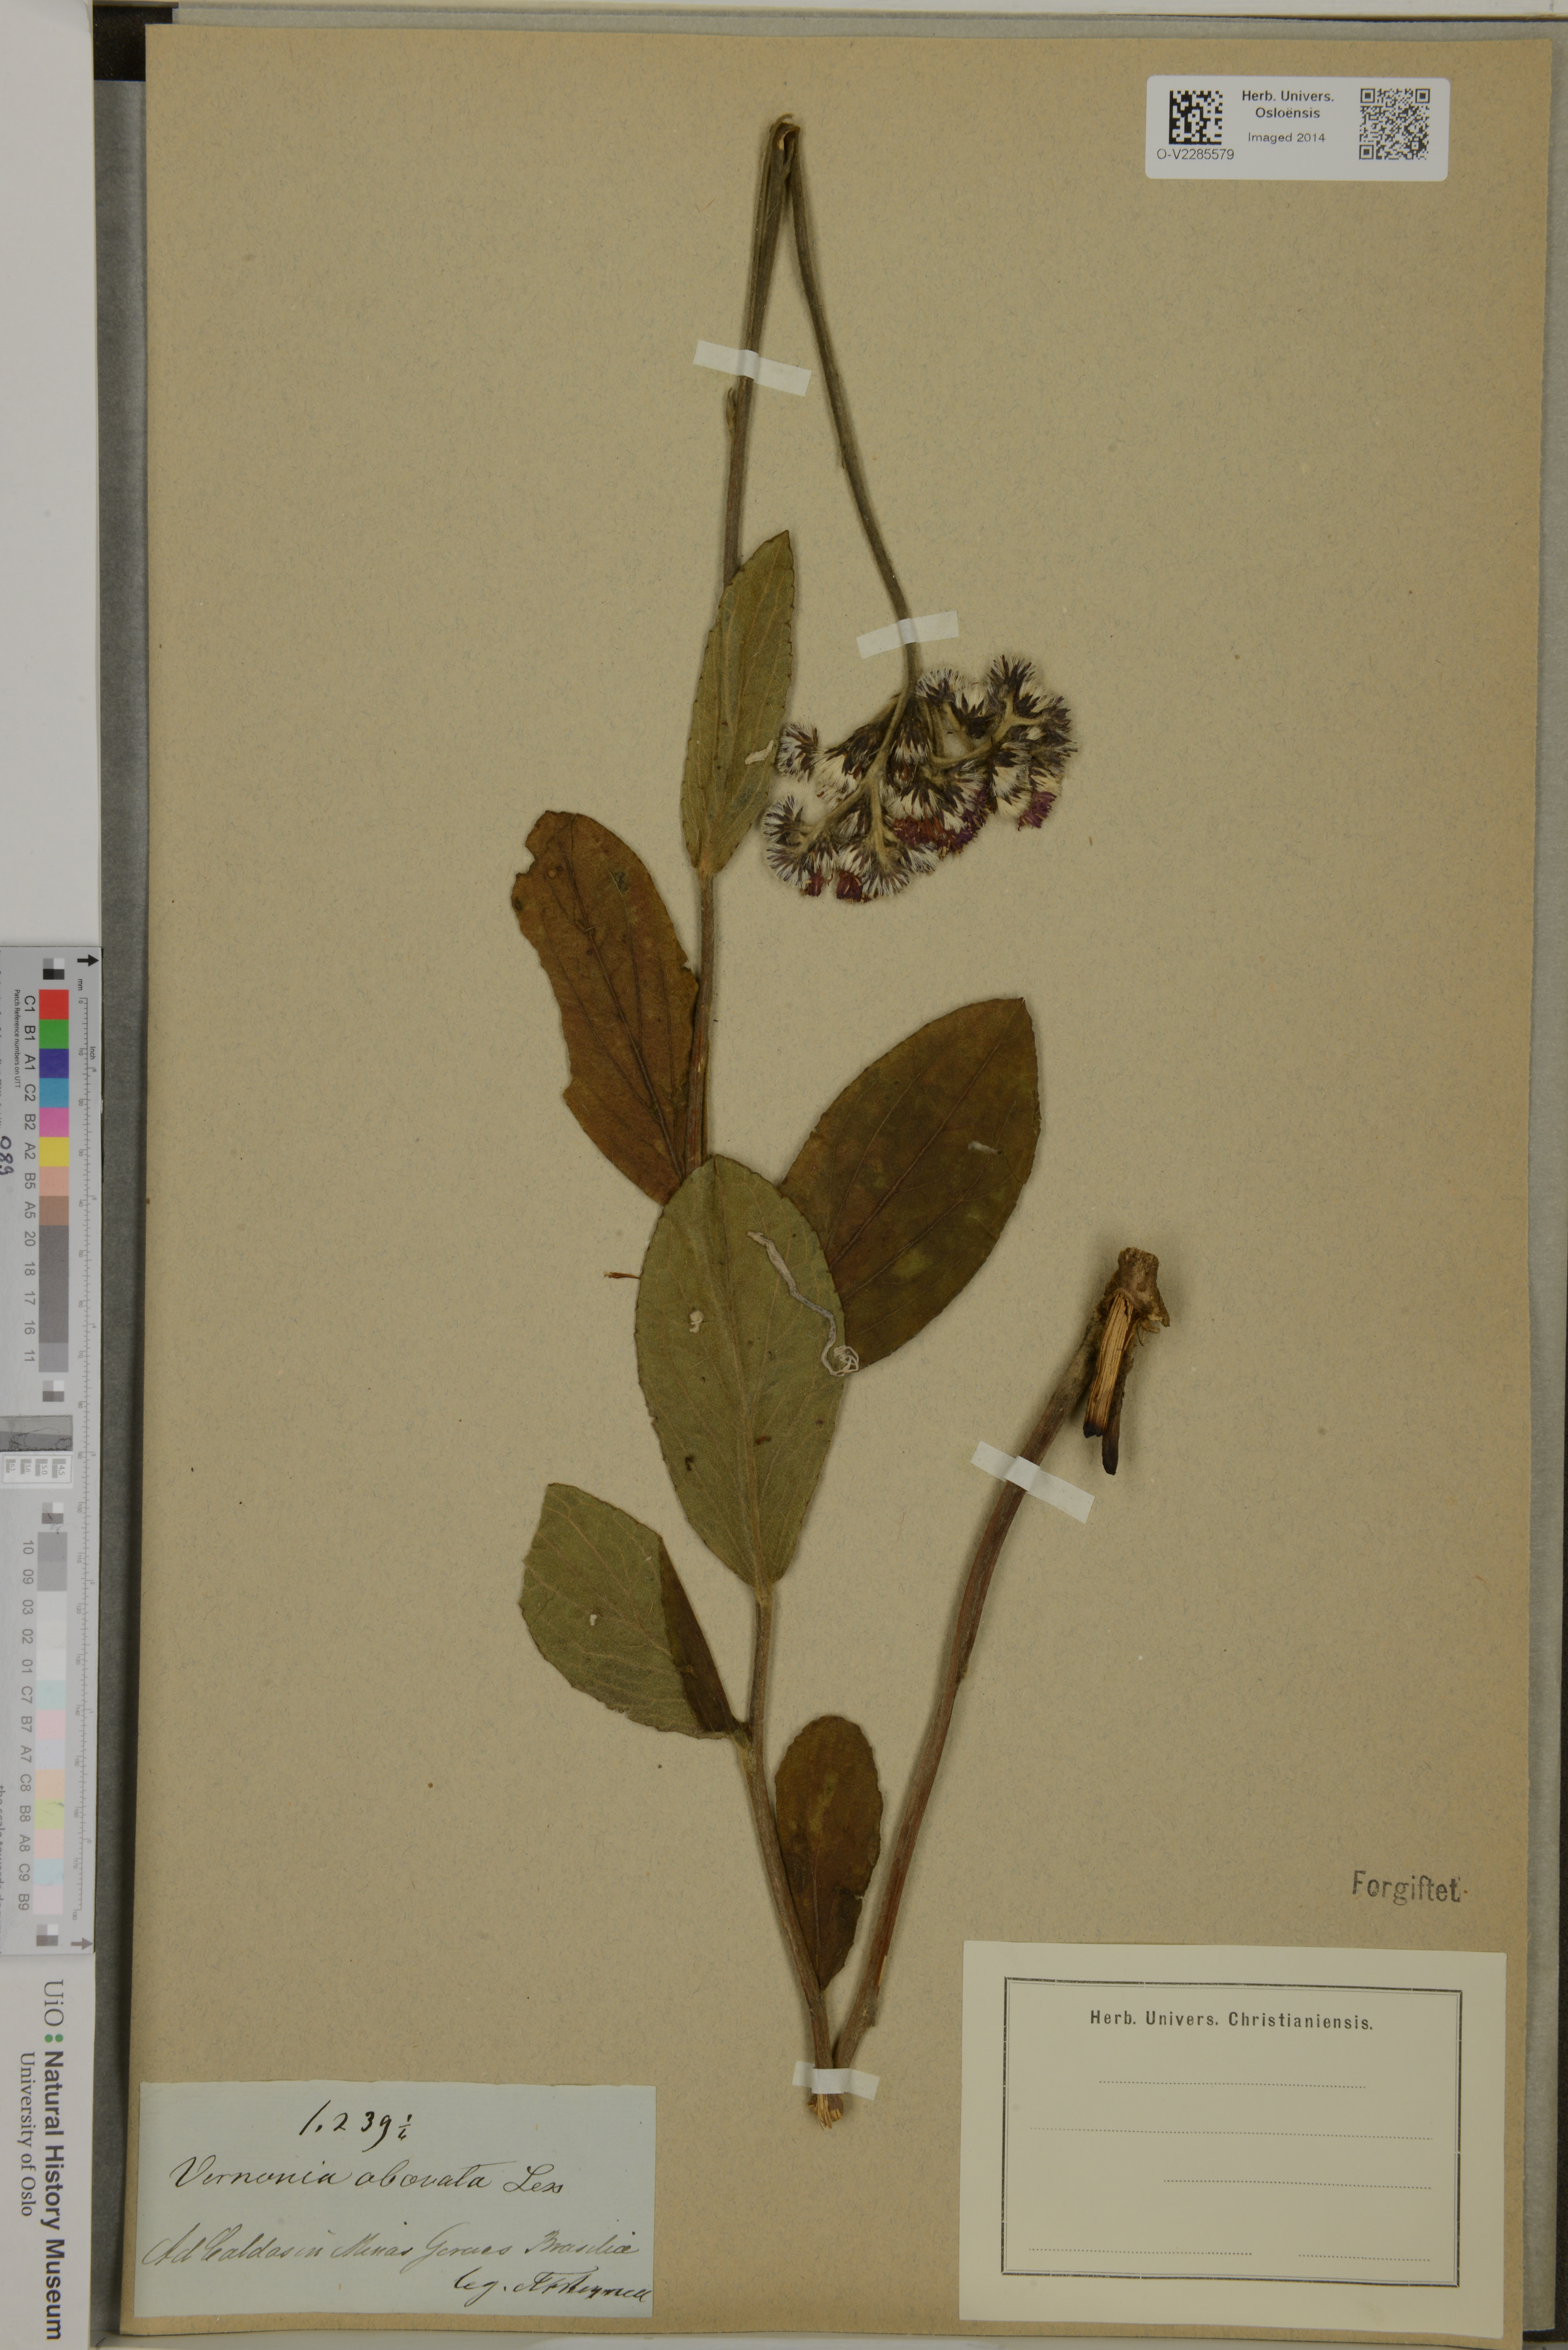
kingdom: Plantae
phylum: Tracheophyta
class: Magnoliopsida
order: Asterales
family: Asteraceae
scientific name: Asteraceae
